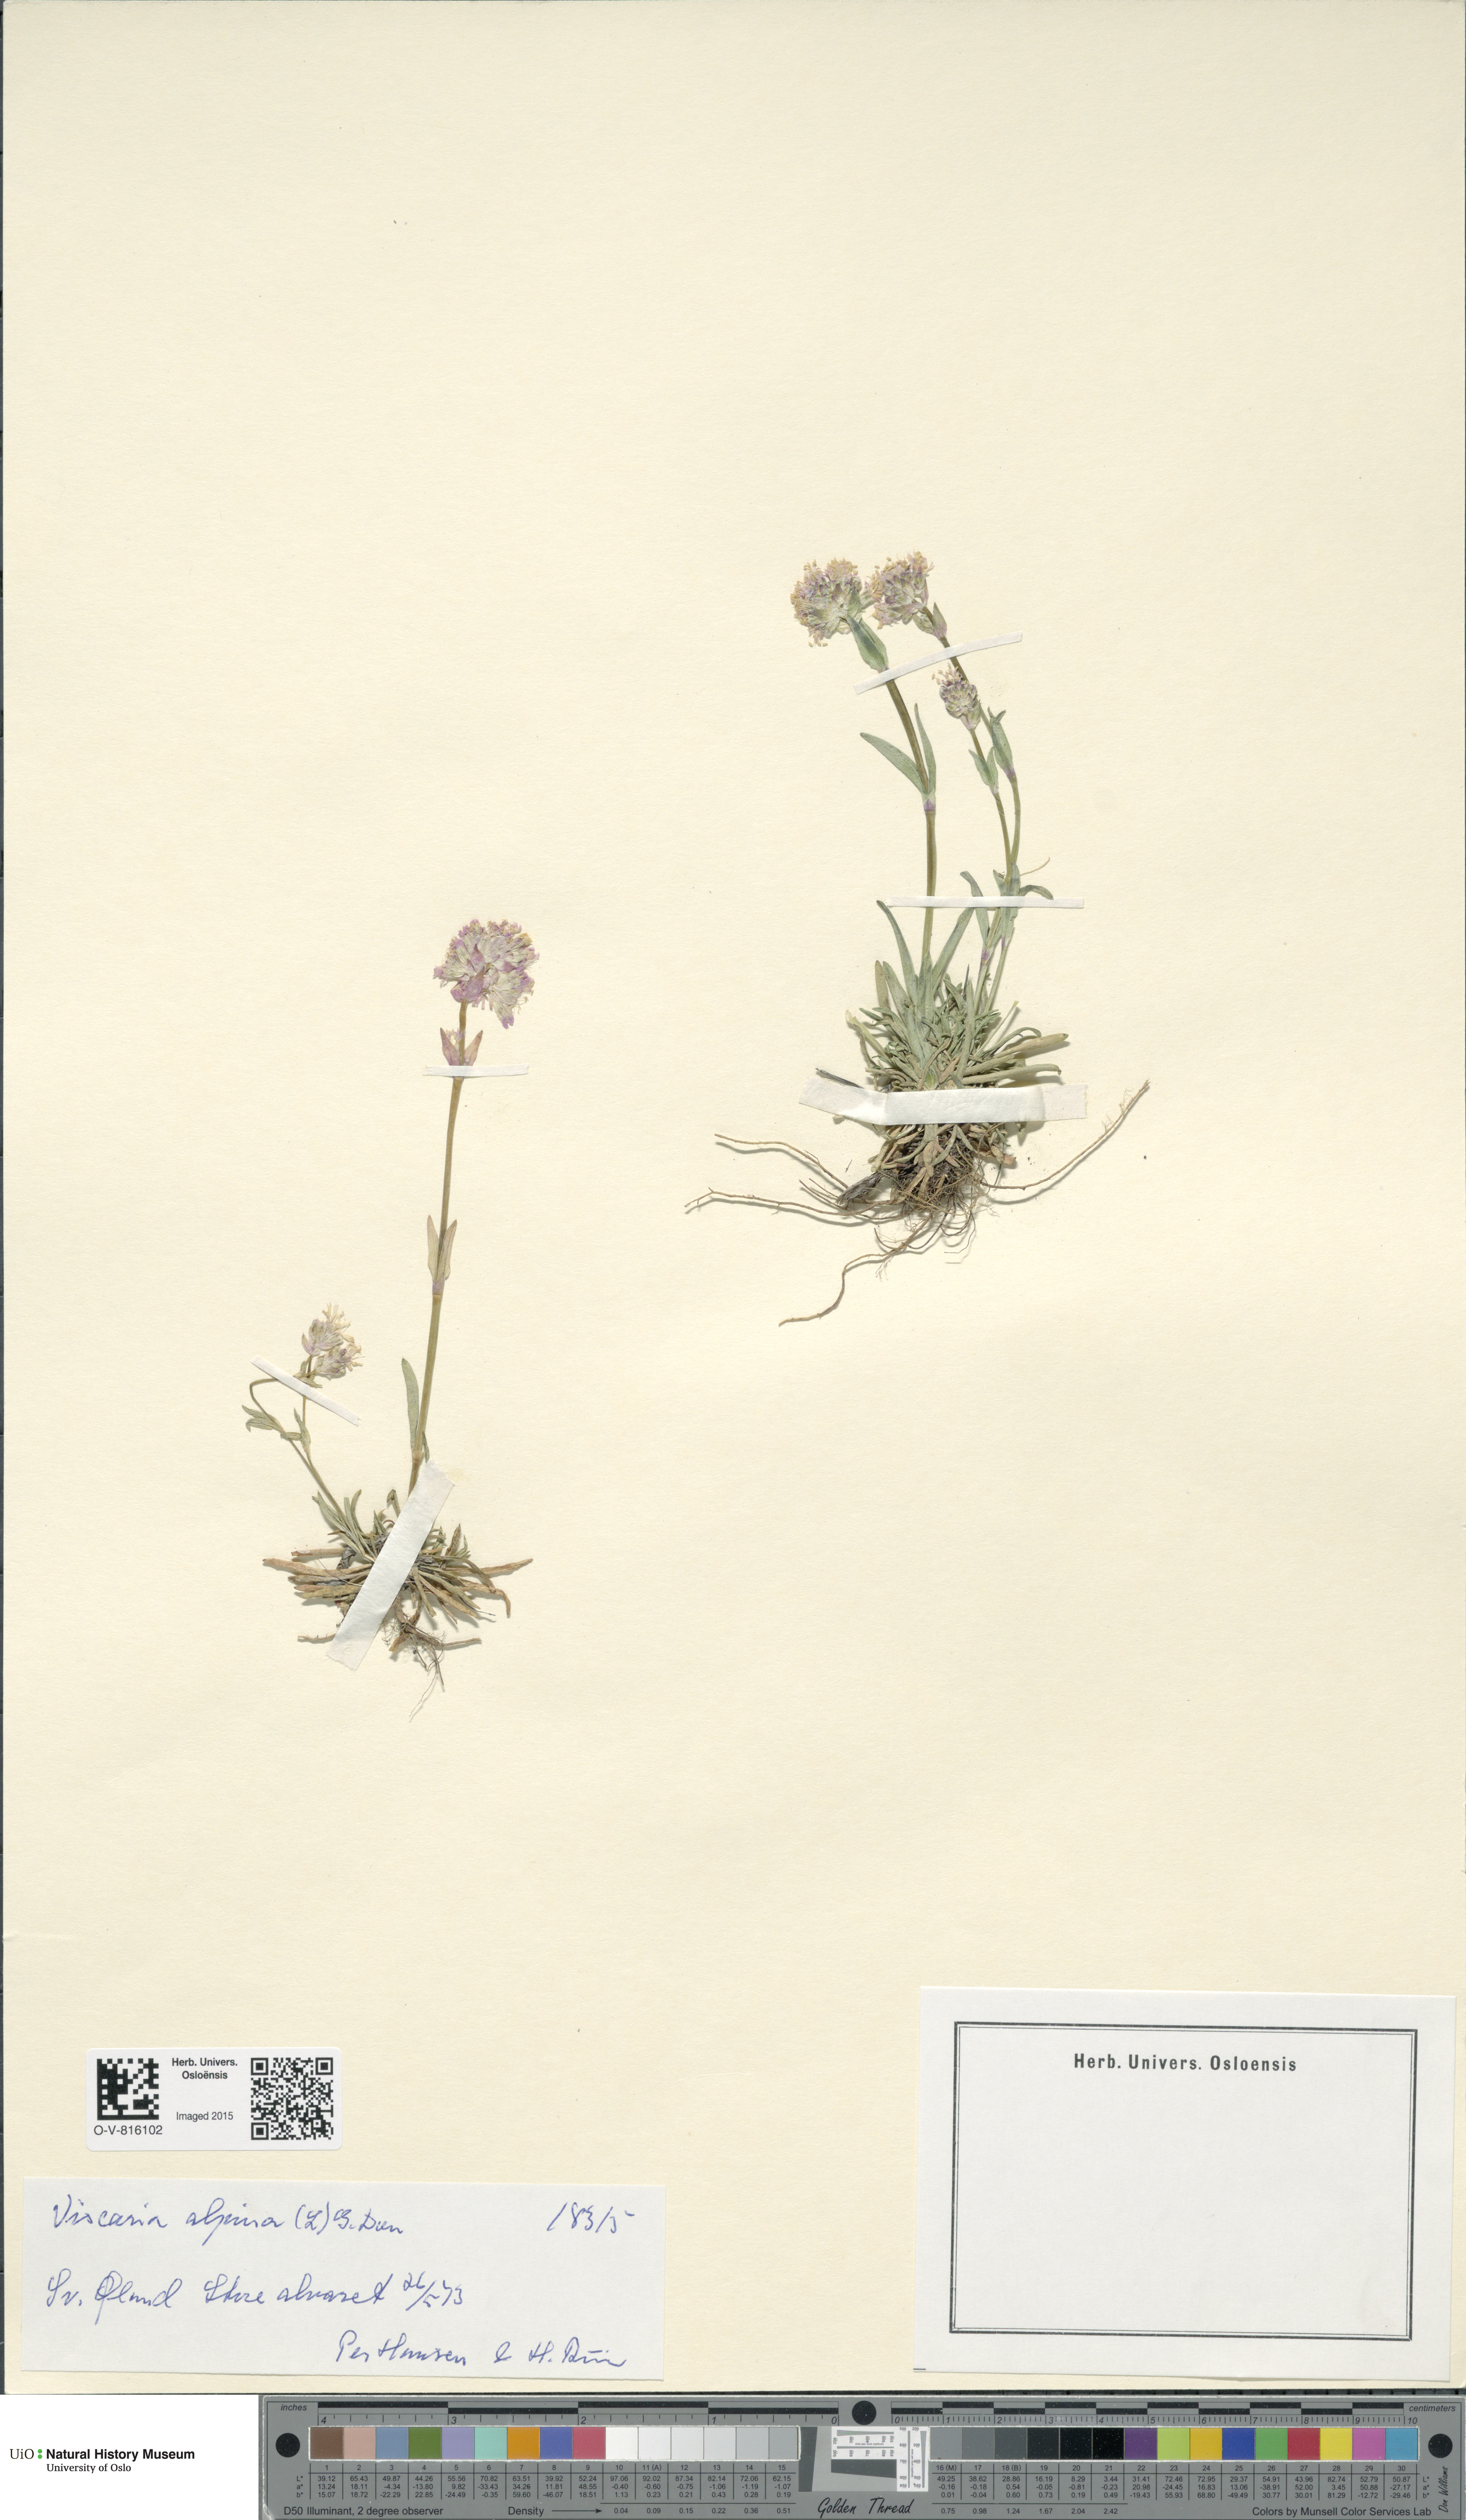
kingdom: Plantae
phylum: Tracheophyta
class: Magnoliopsida
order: Caryophyllales
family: Caryophyllaceae
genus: Viscaria
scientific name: Viscaria alpina
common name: Alpine campion
